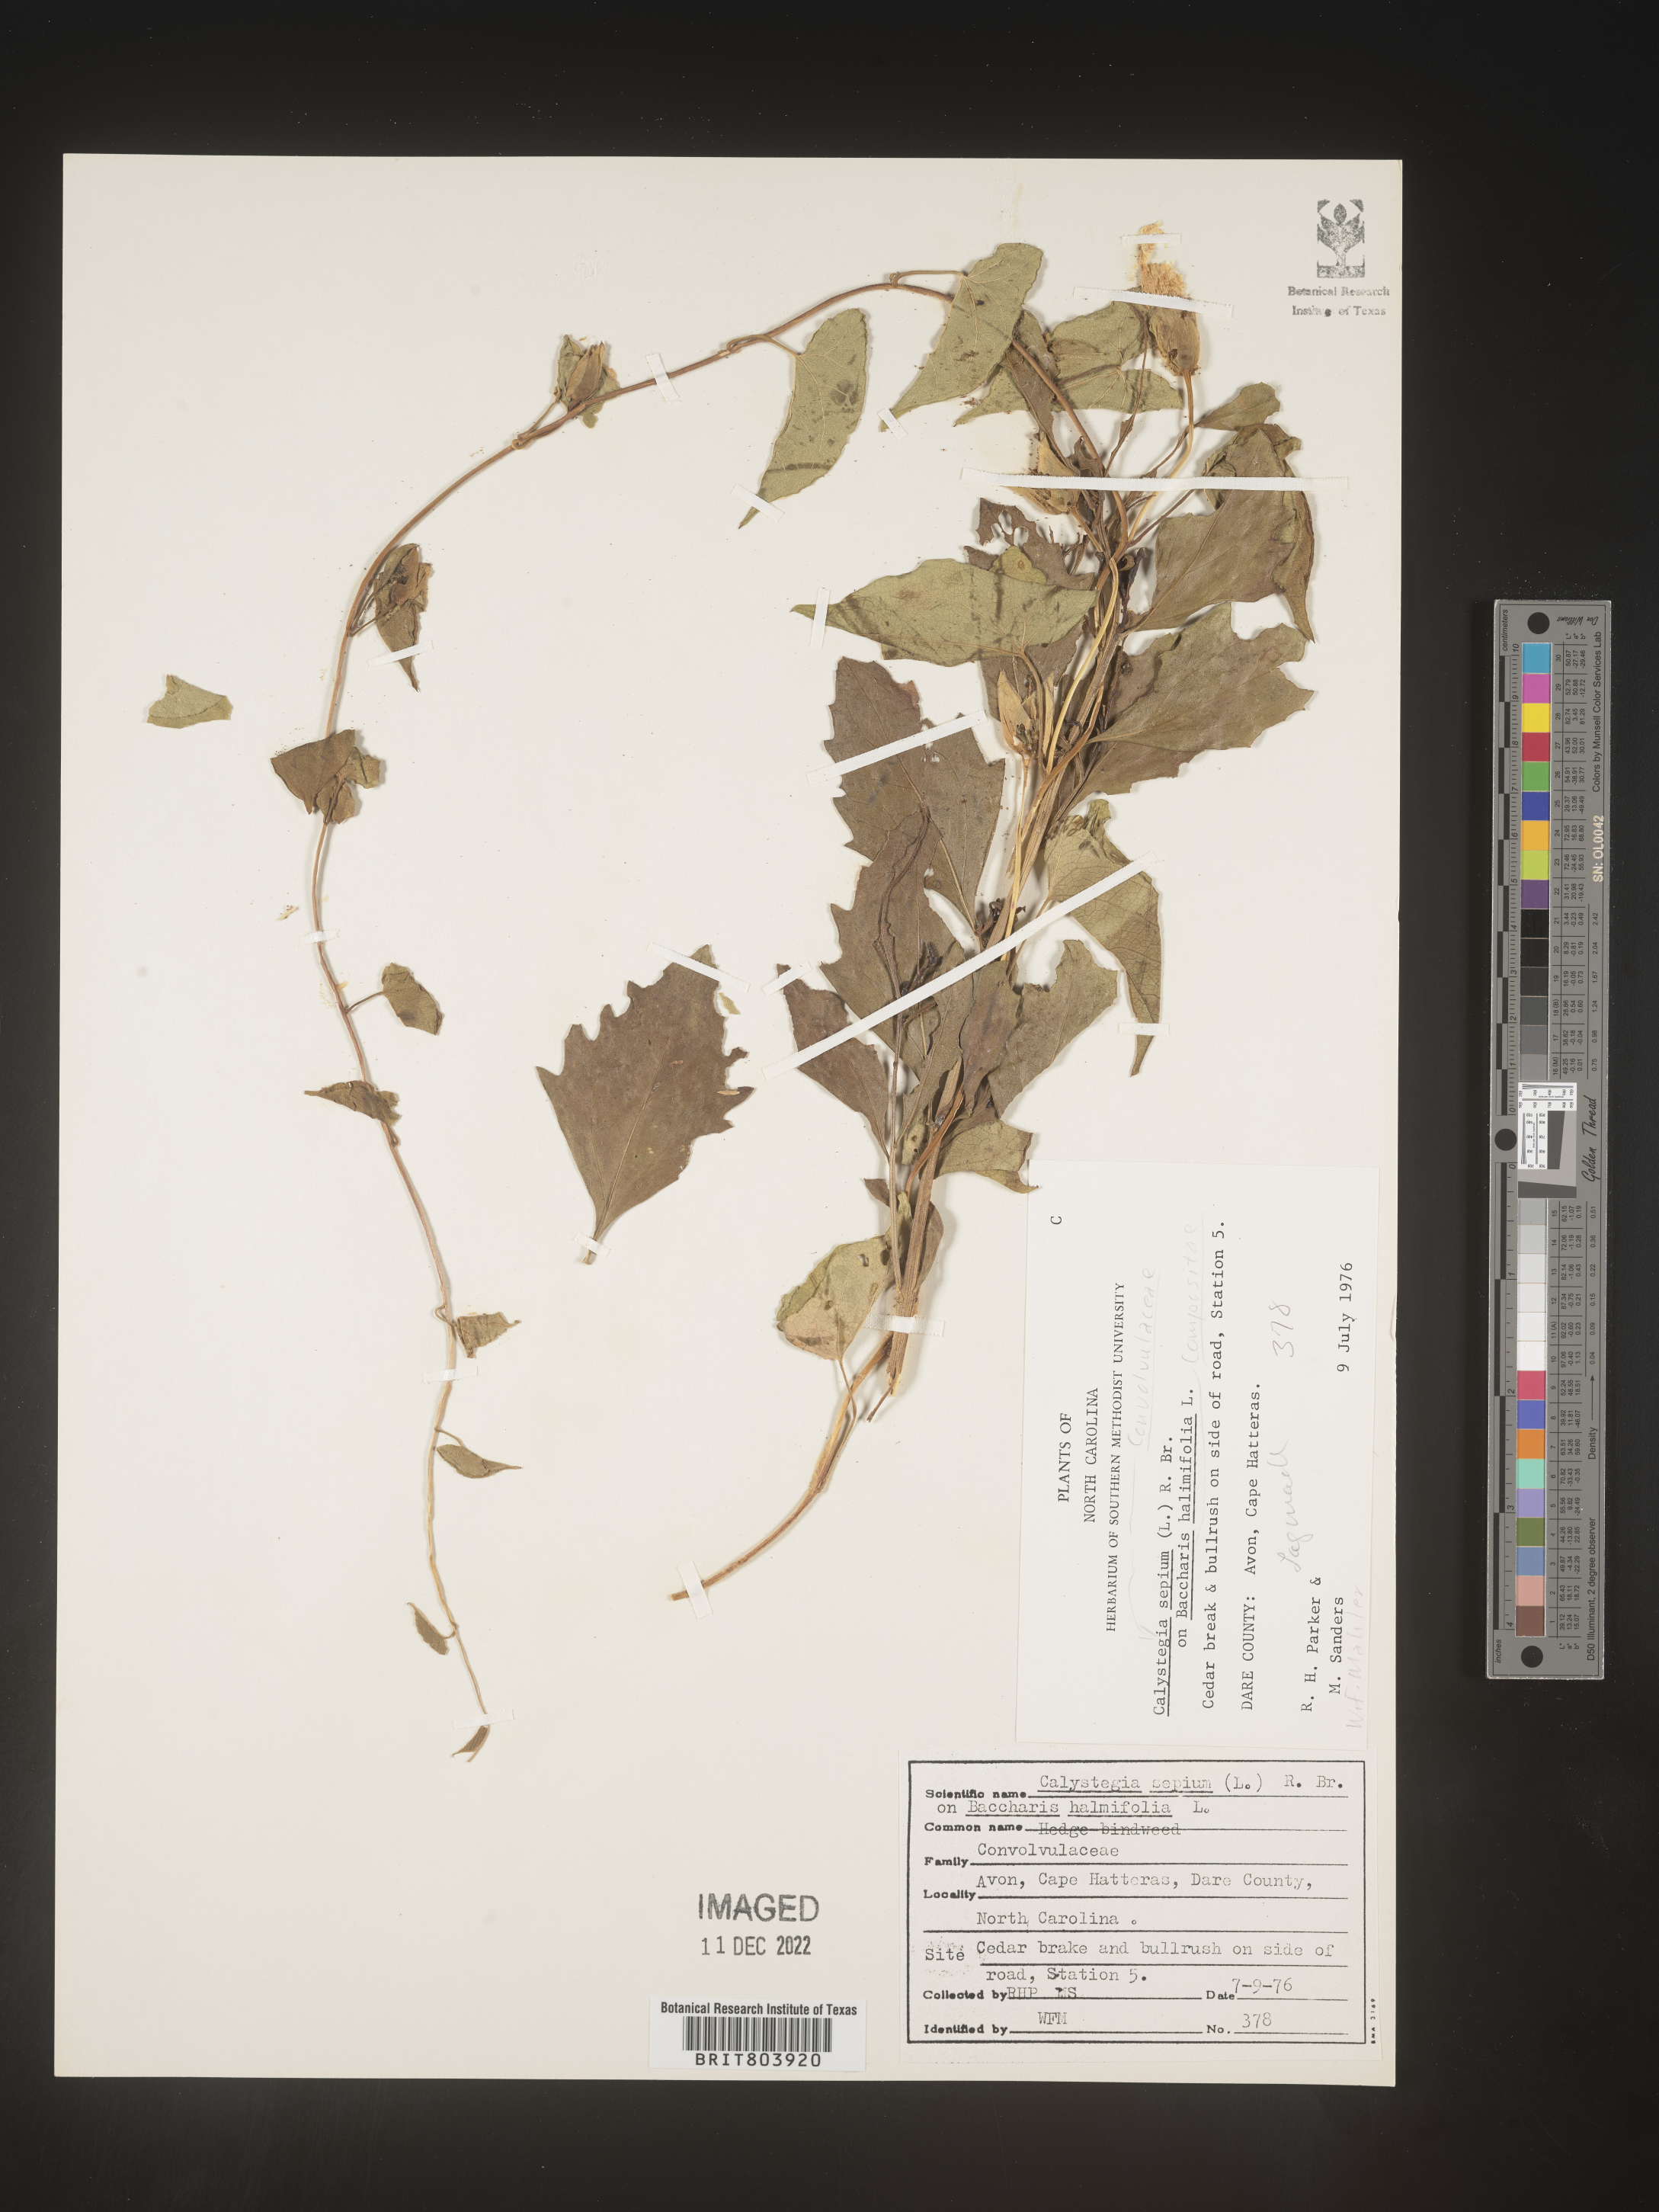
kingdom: Plantae
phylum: Tracheophyta
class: Magnoliopsida
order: Solanales
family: Convolvulaceae
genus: Calystegia
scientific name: Calystegia sepium
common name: Hedge bindweed
